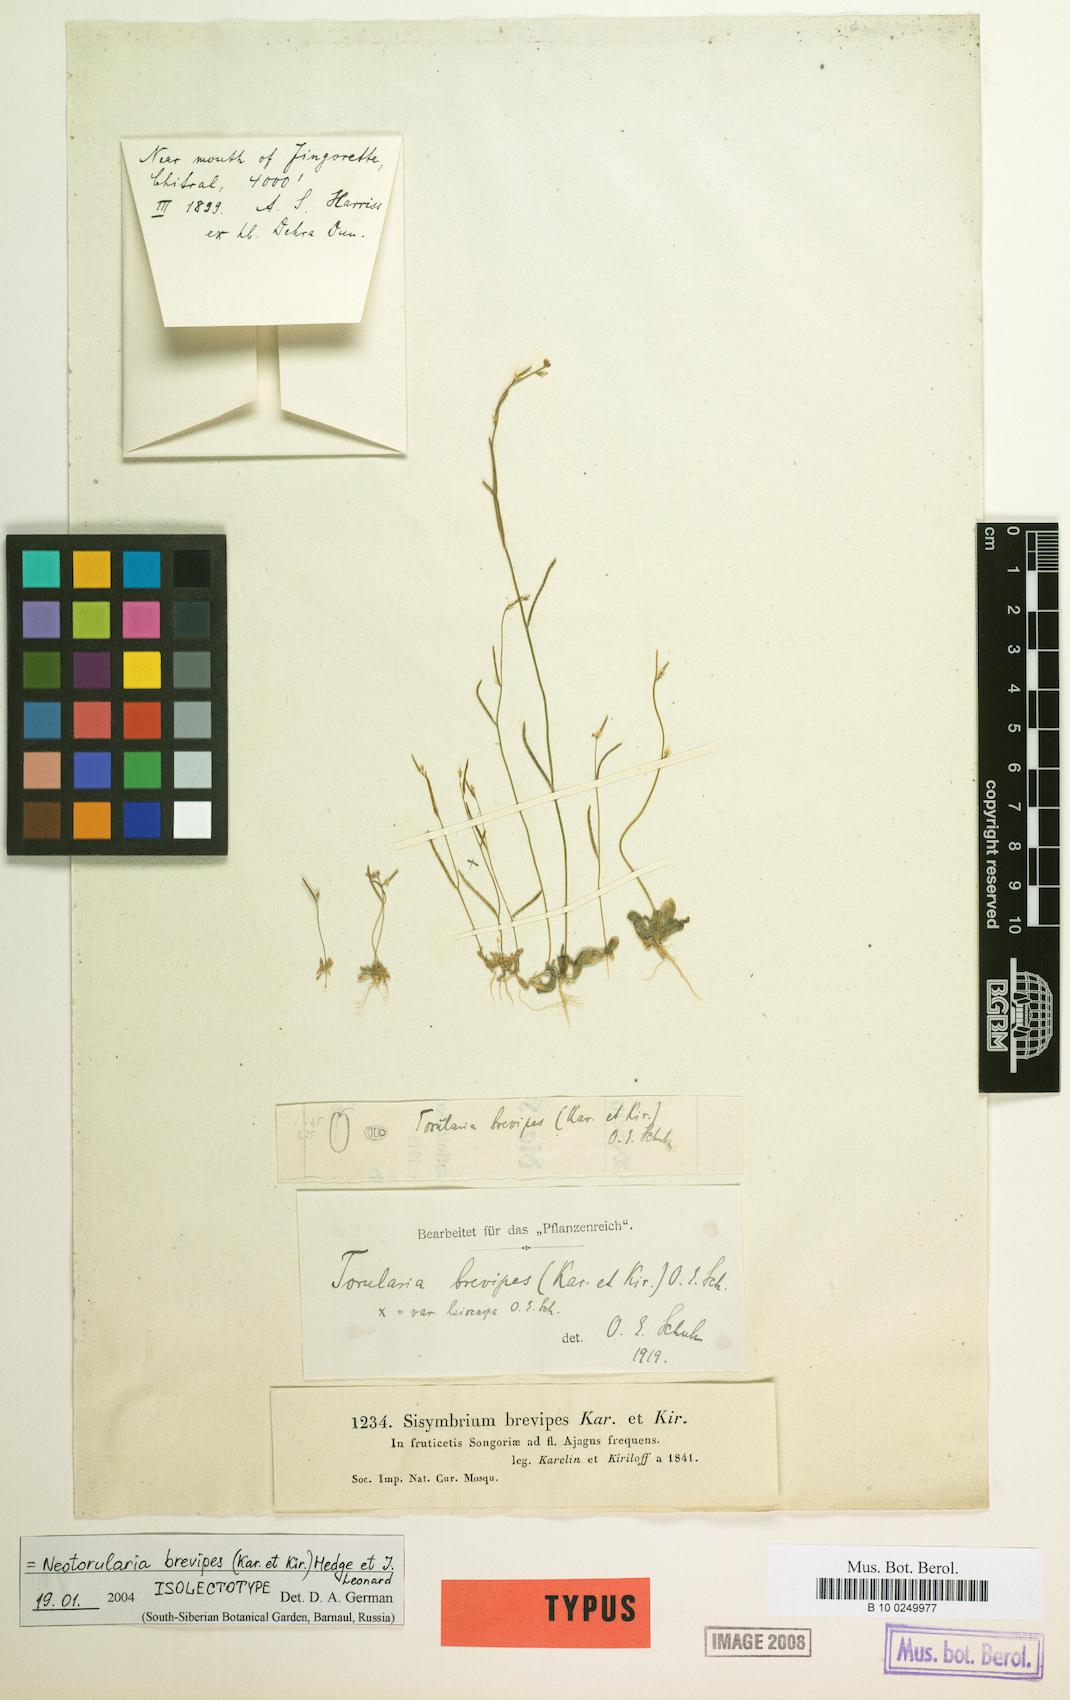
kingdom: Plantae
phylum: Tracheophyta
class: Magnoliopsida
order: Brassicales
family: Brassicaceae
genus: Neotorularia
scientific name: Neotorularia brevipes
